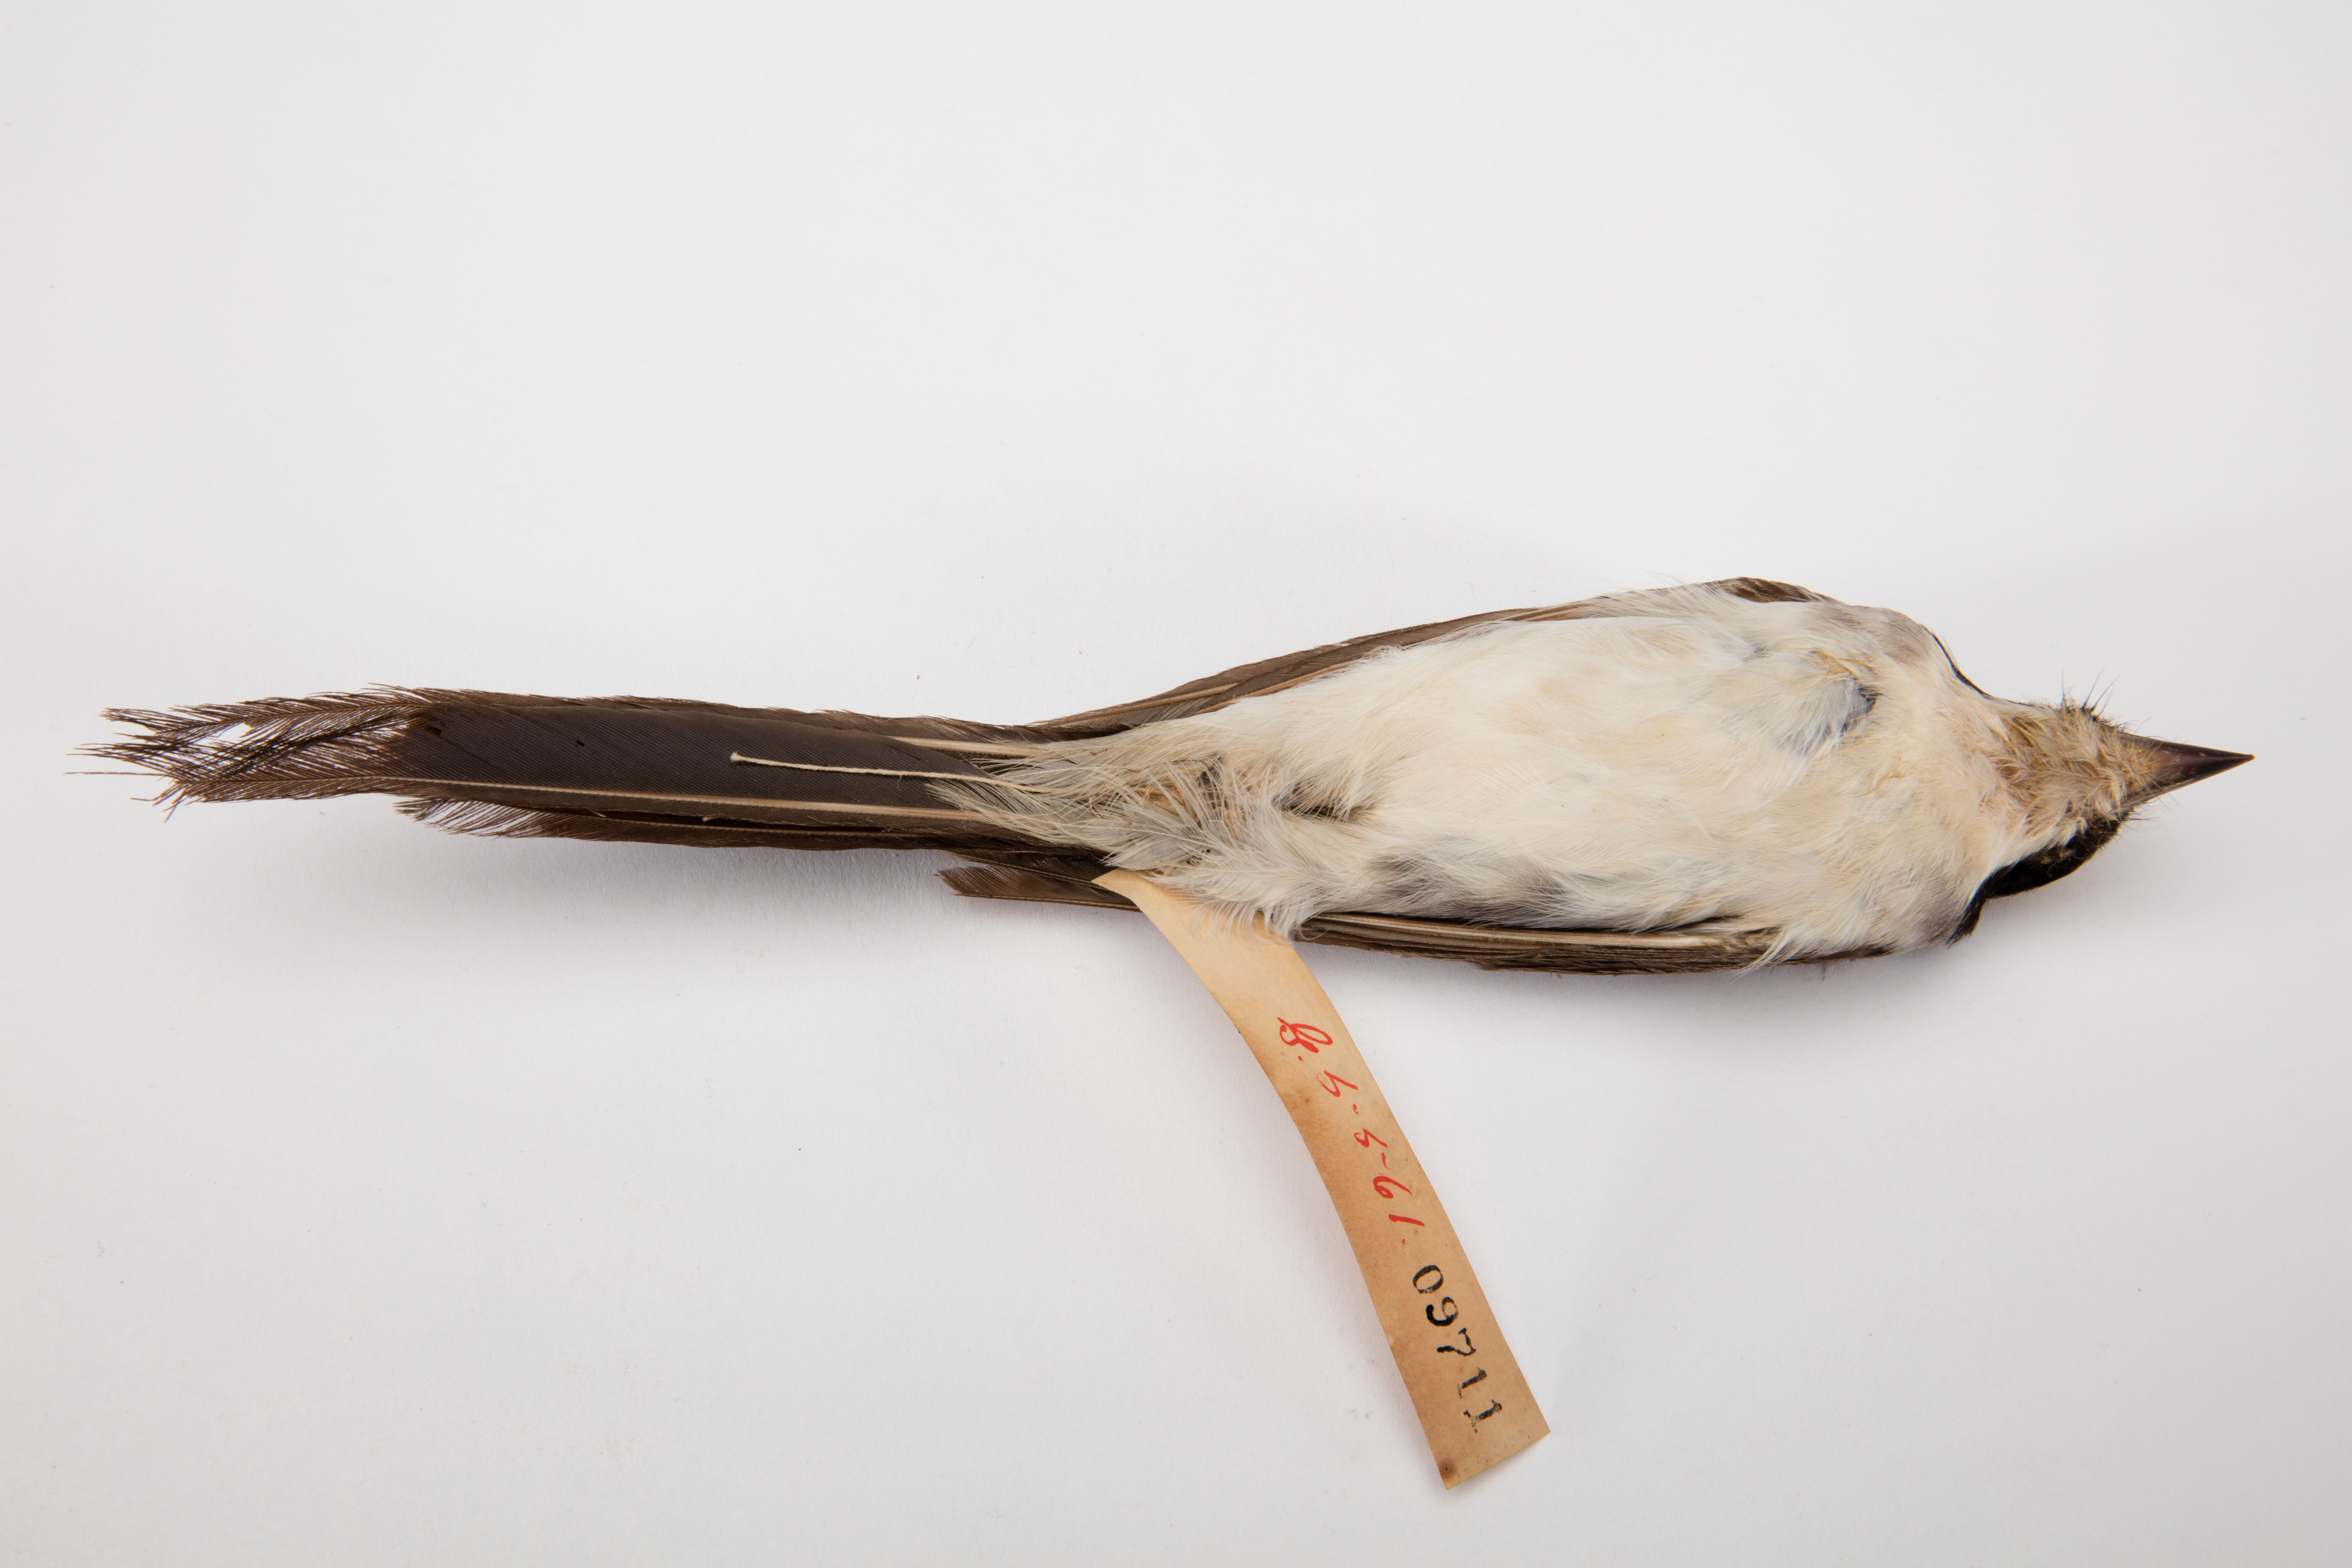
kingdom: Animalia
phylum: Chordata
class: Aves
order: Passeriformes
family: Tyrannidae
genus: Tyrannus
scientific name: Tyrannus tyrannus
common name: Eastern kingbird
